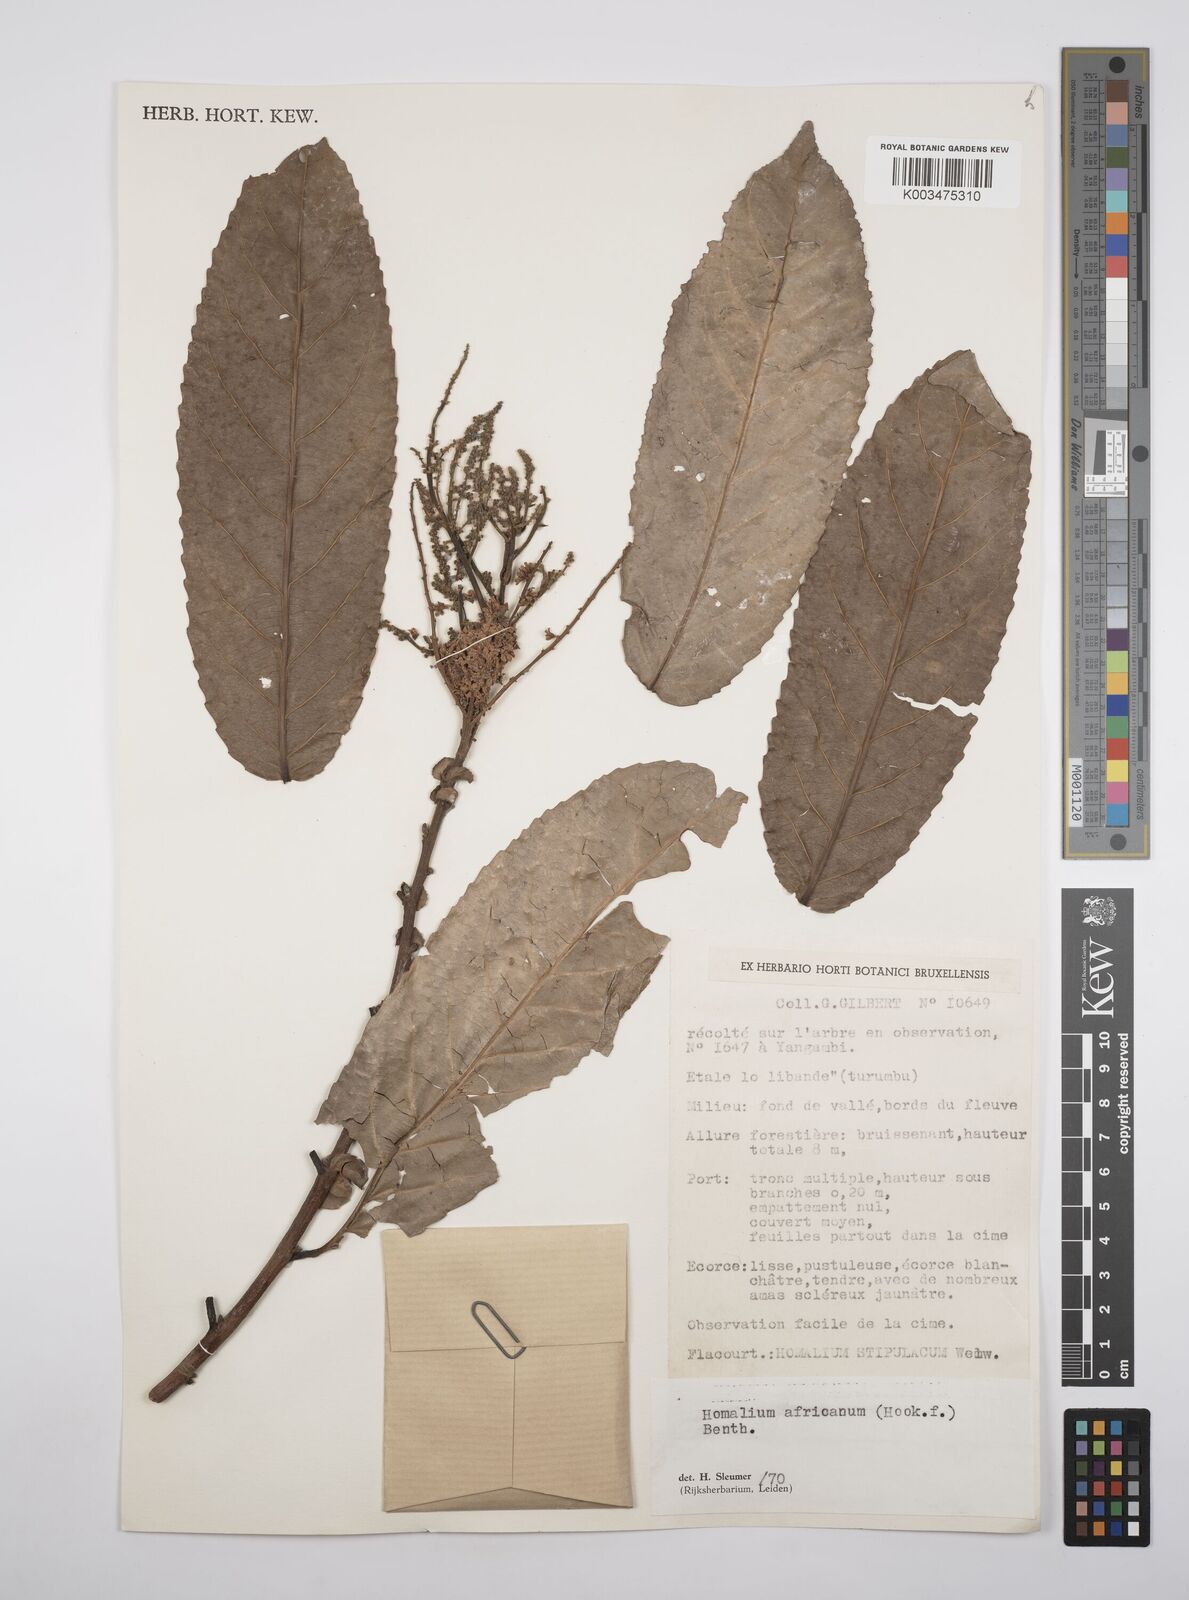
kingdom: Plantae
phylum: Tracheophyta
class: Magnoliopsida
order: Malpighiales
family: Salicaceae
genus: Homalium
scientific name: Homalium africanum
